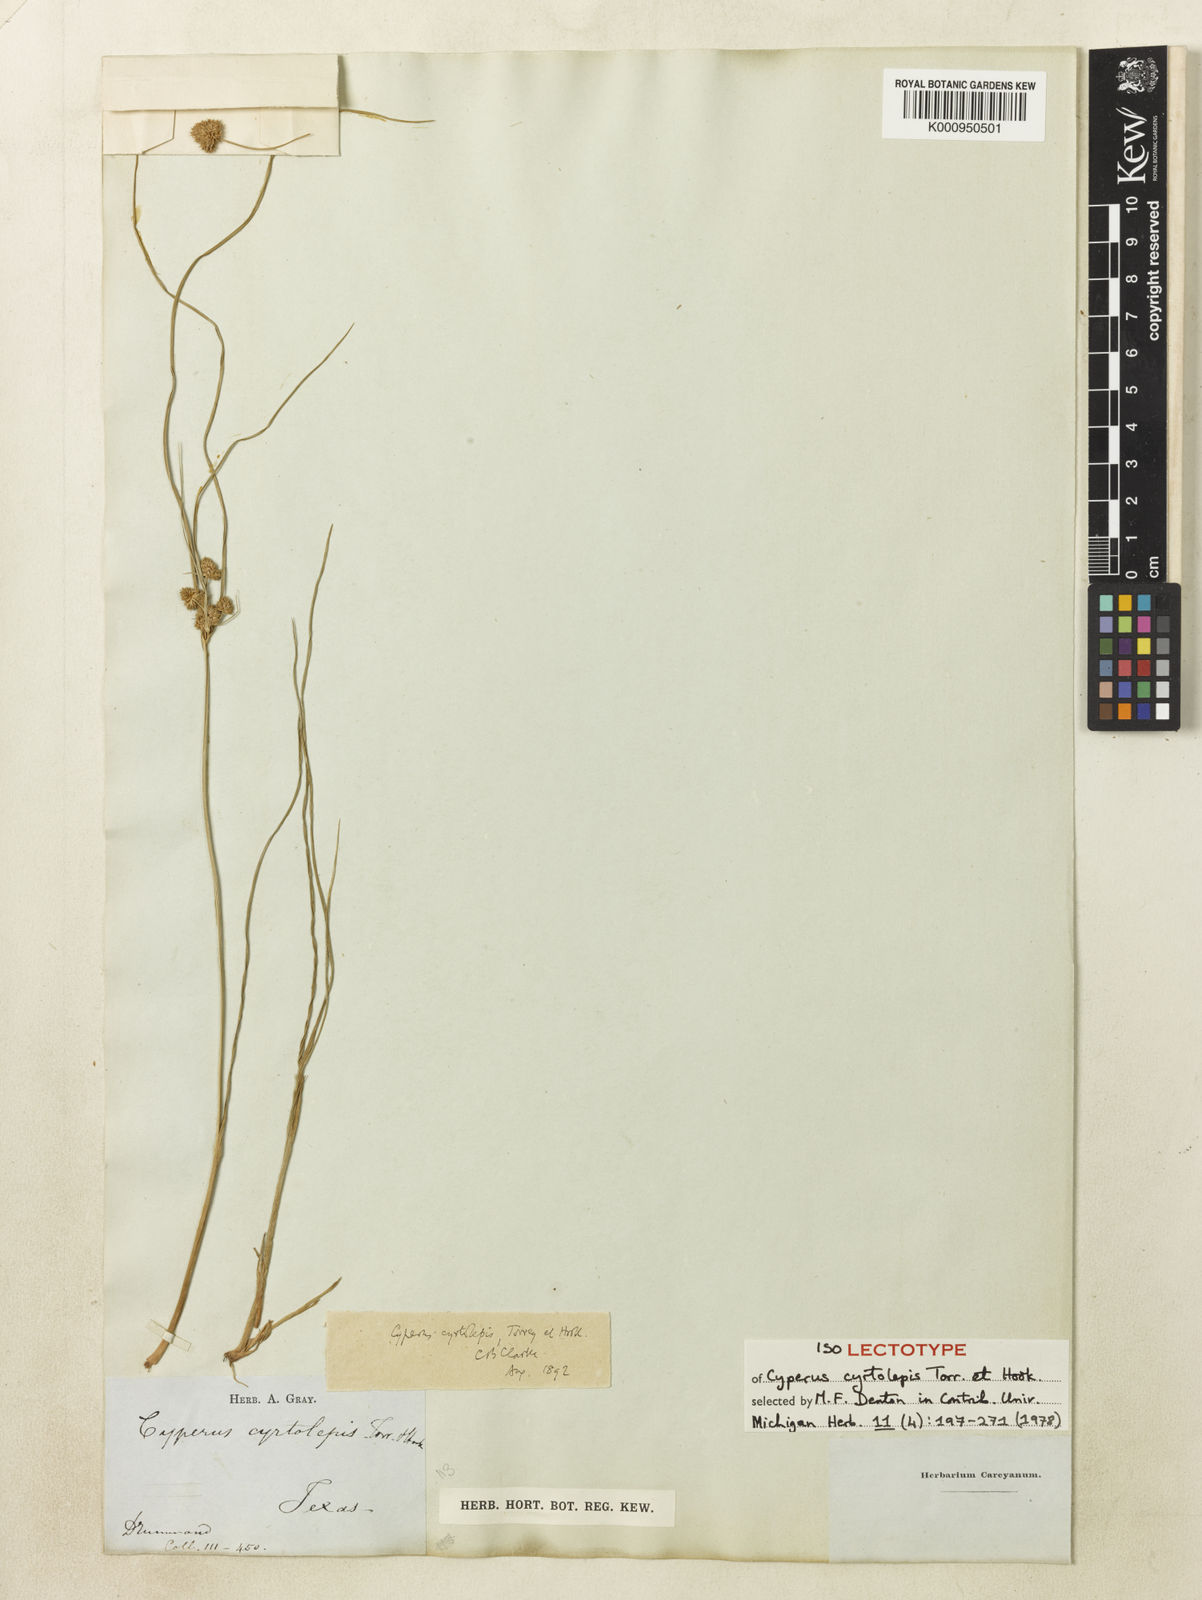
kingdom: Plantae
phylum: Tracheophyta
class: Liliopsida
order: Poales
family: Cyperaceae
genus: Cyperus
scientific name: Cyperus acuminatus
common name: Short-pointed cyperus
